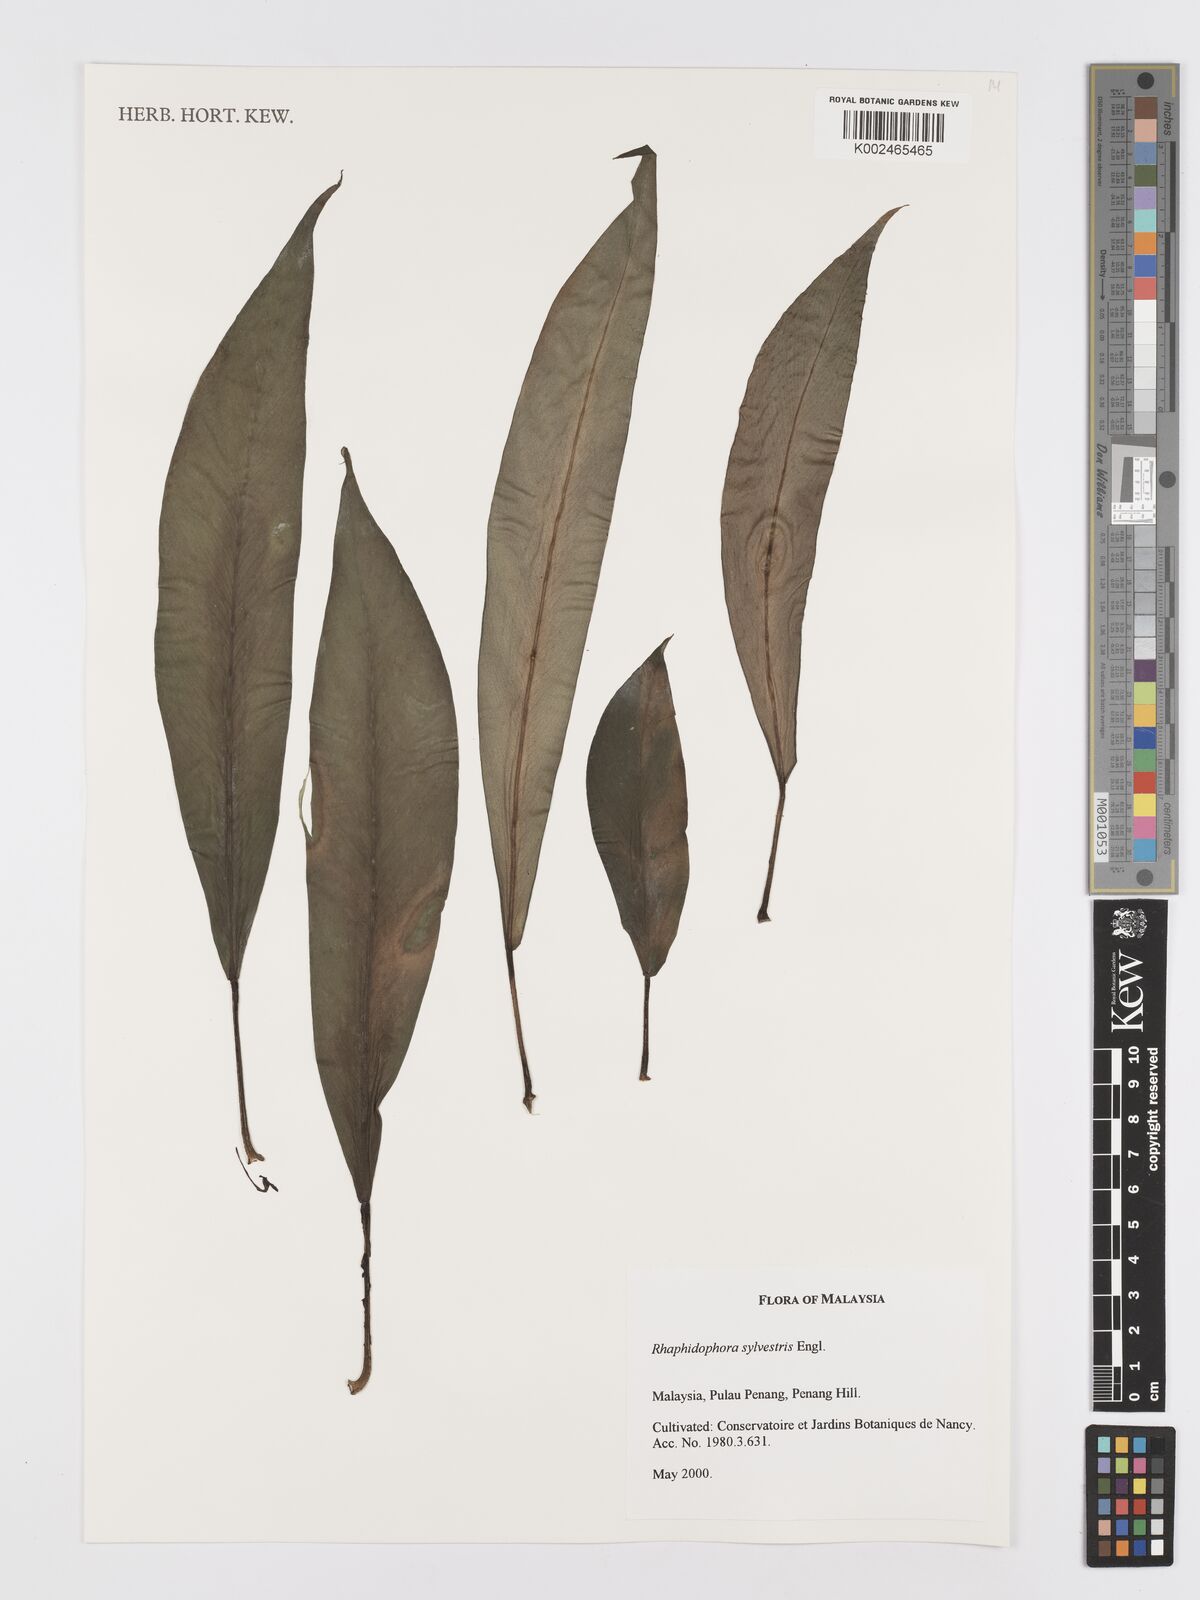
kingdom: Plantae
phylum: Tracheophyta
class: Liliopsida
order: Alismatales
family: Araceae
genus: Rhaphidophora
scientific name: Rhaphidophora sylvestris
